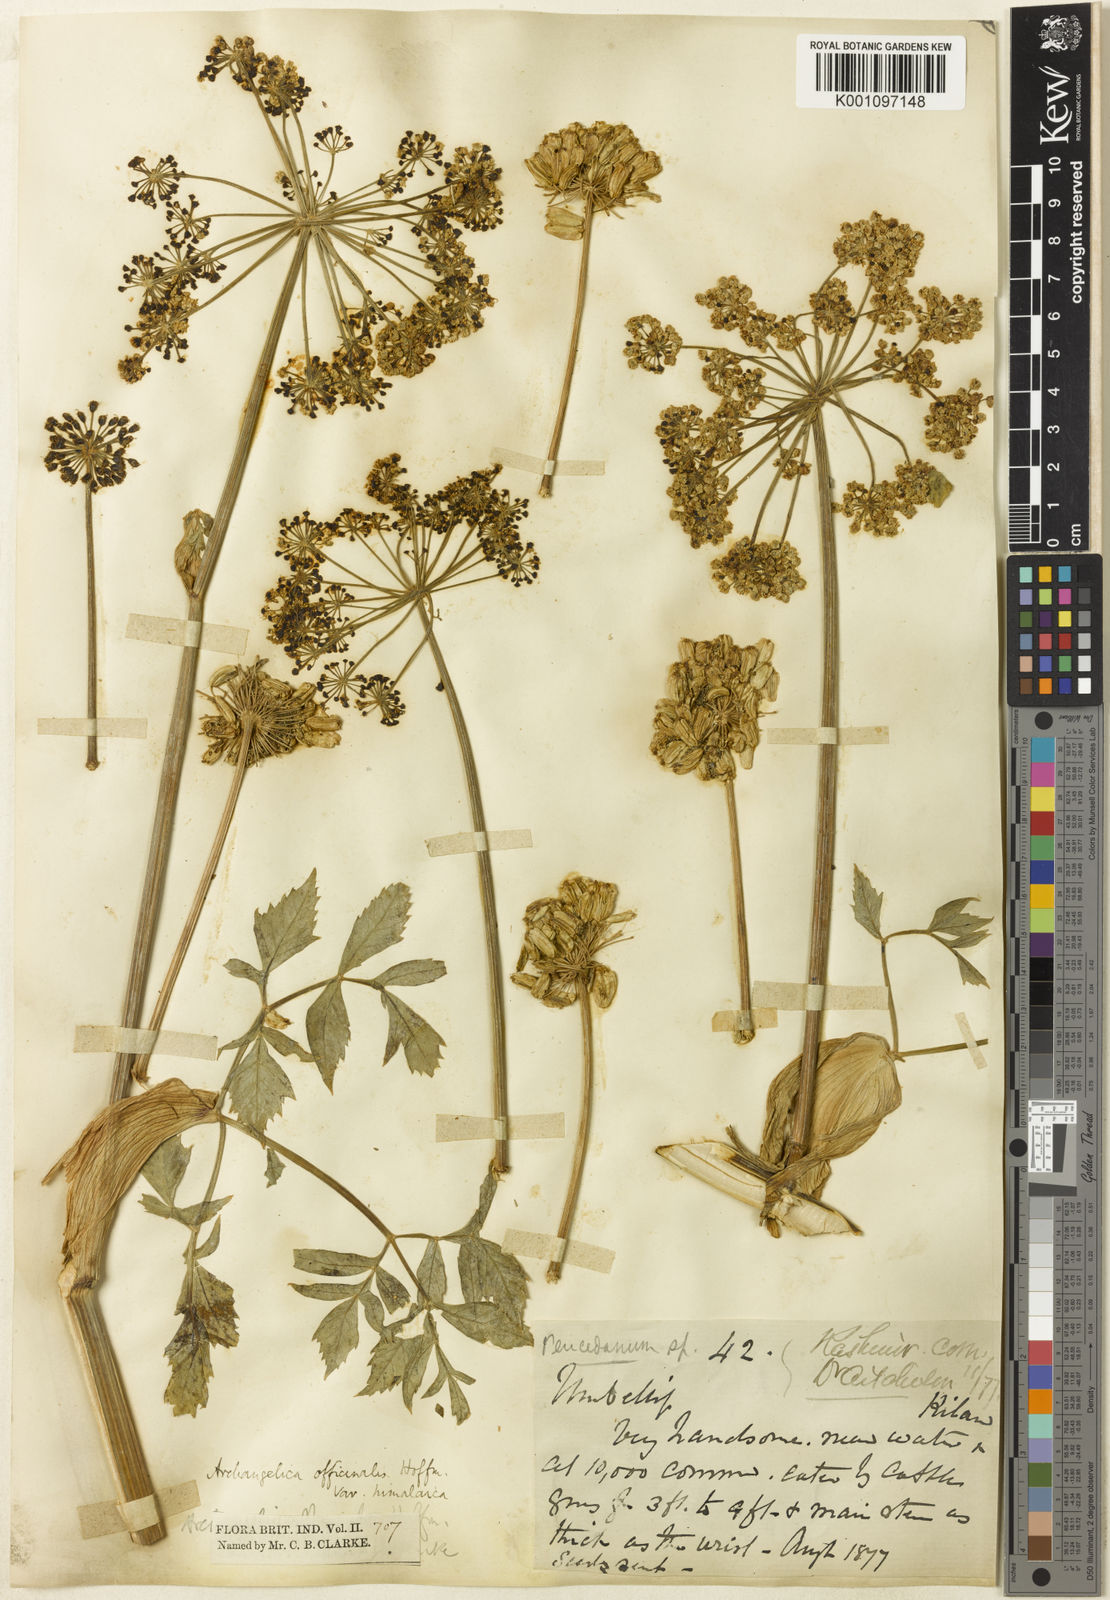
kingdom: Plantae
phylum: Tracheophyta
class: Magnoliopsida
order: Apiales
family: Apiaceae
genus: Angelica
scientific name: Angelica oreada
